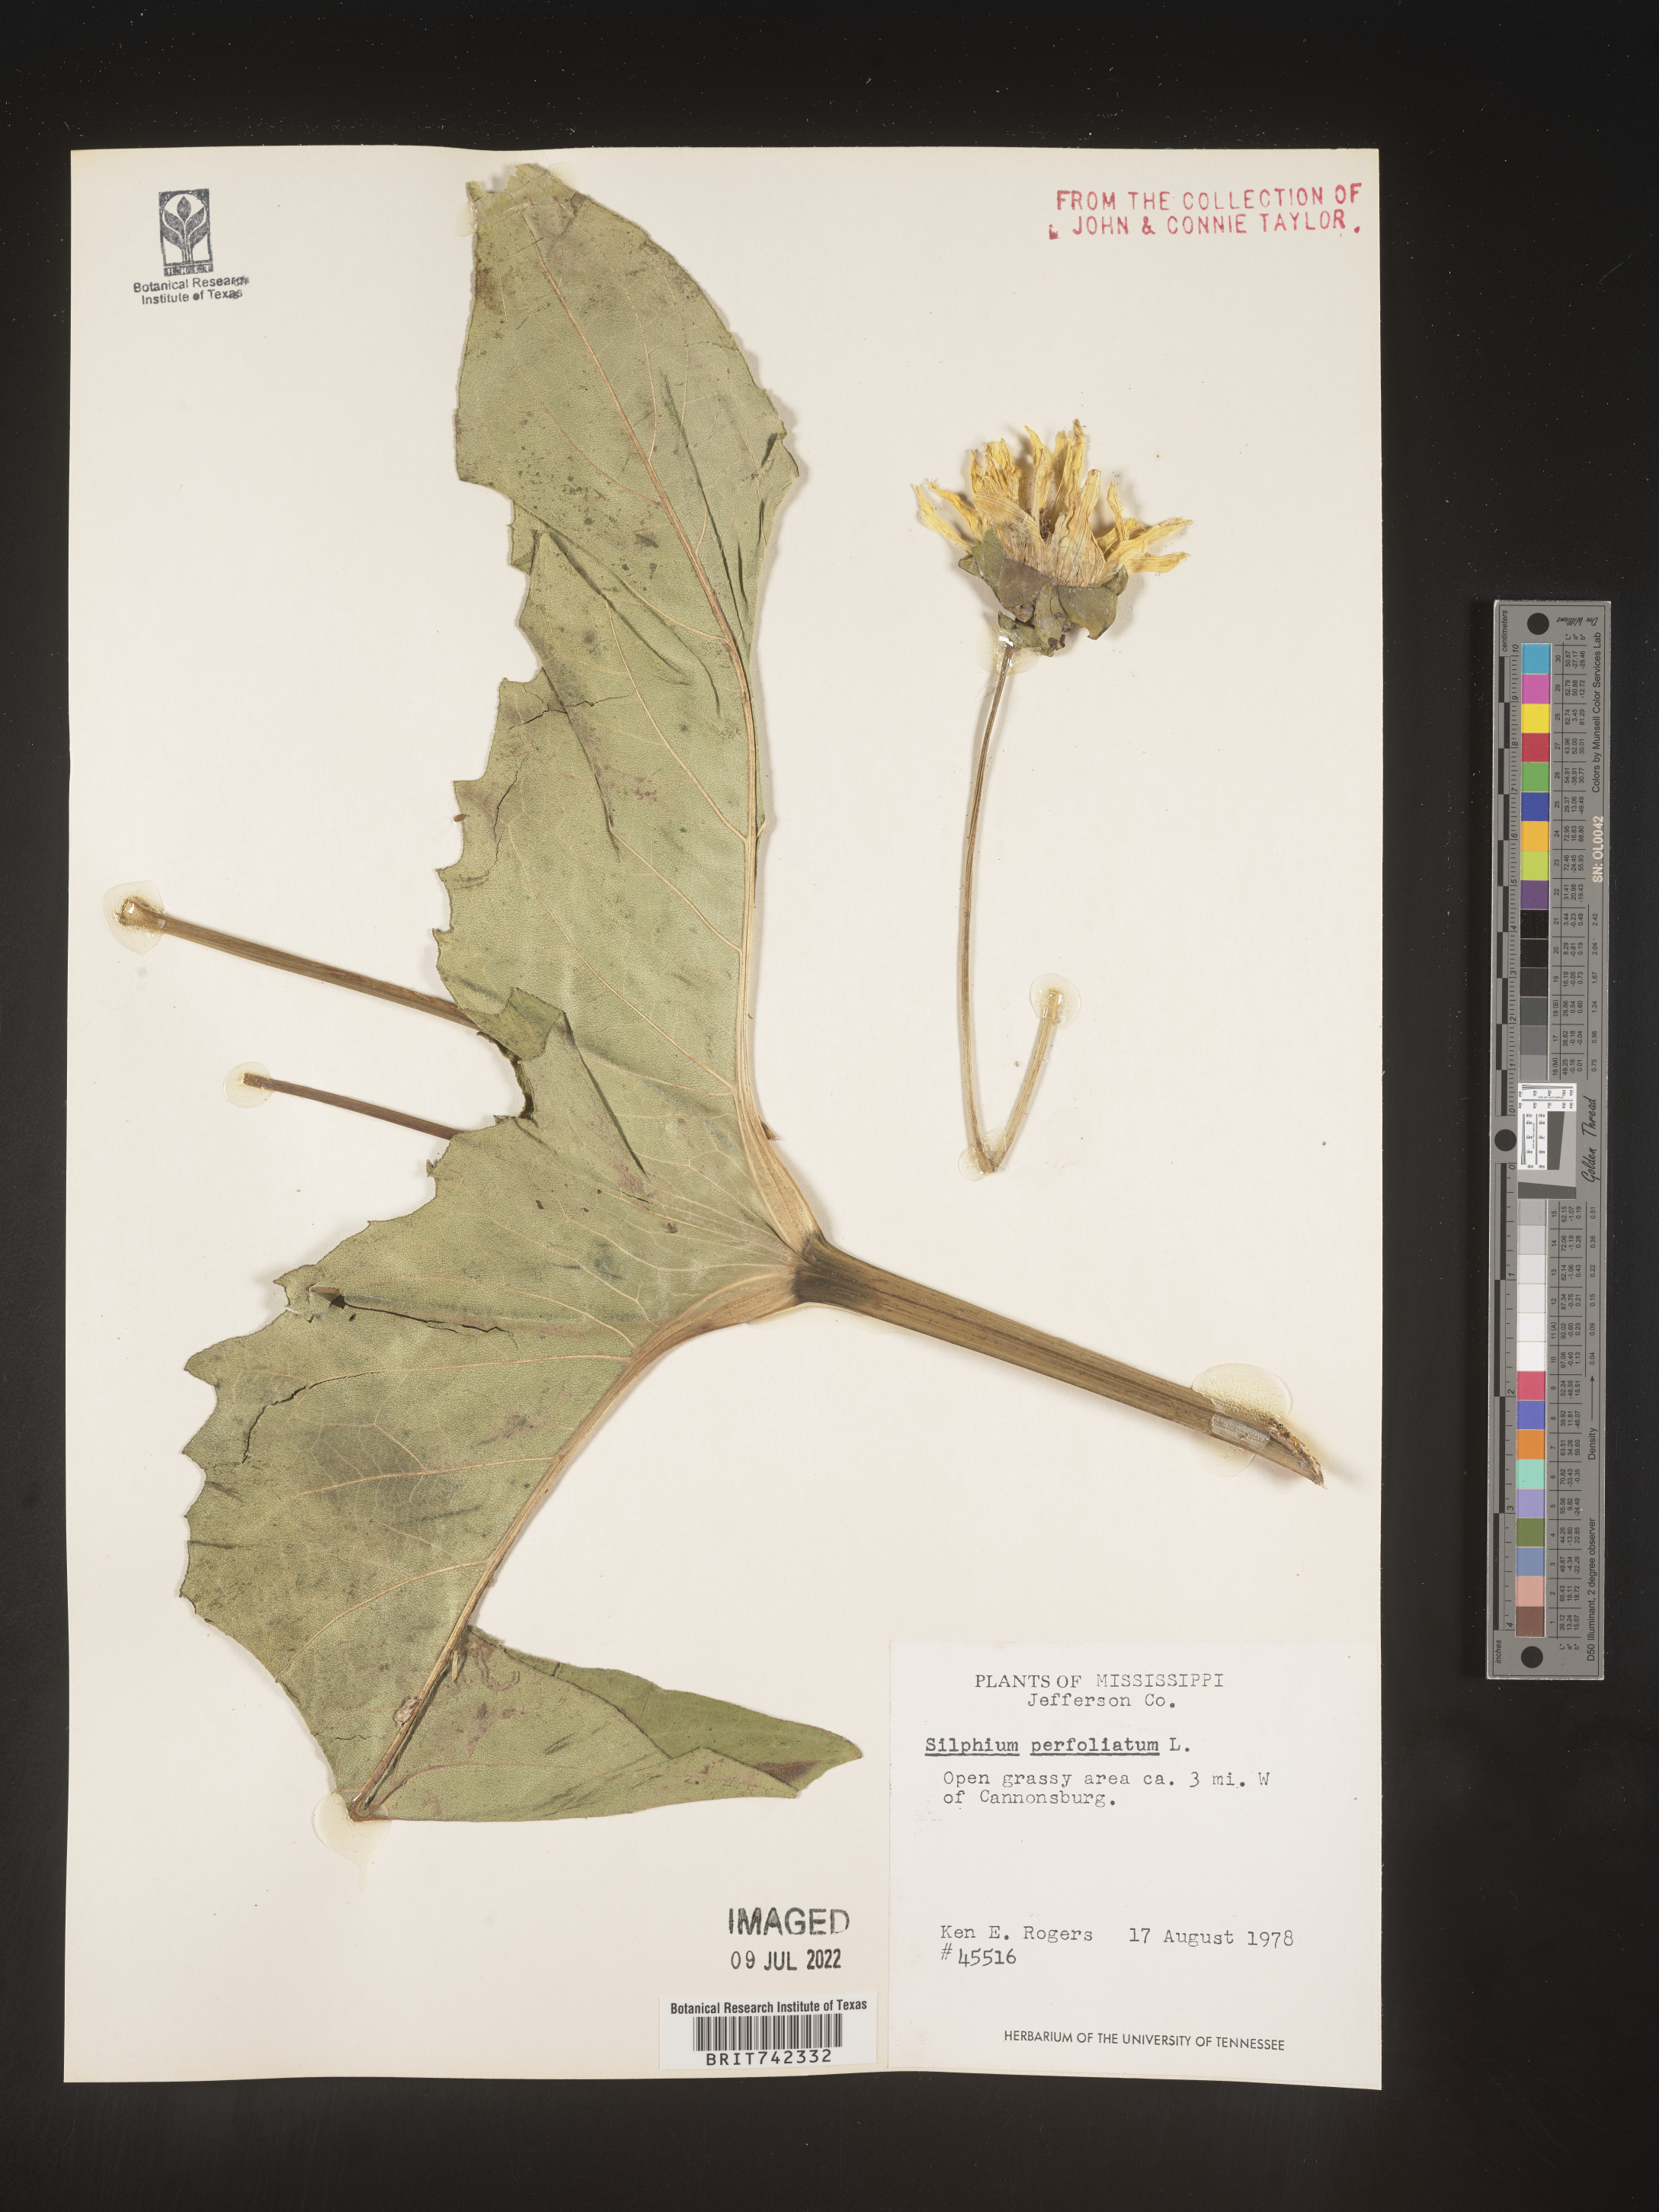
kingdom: Plantae
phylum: Tracheophyta
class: Magnoliopsida
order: Asterales
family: Asteraceae
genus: Silphium
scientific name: Silphium perfoliatum
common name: Cup-plant
